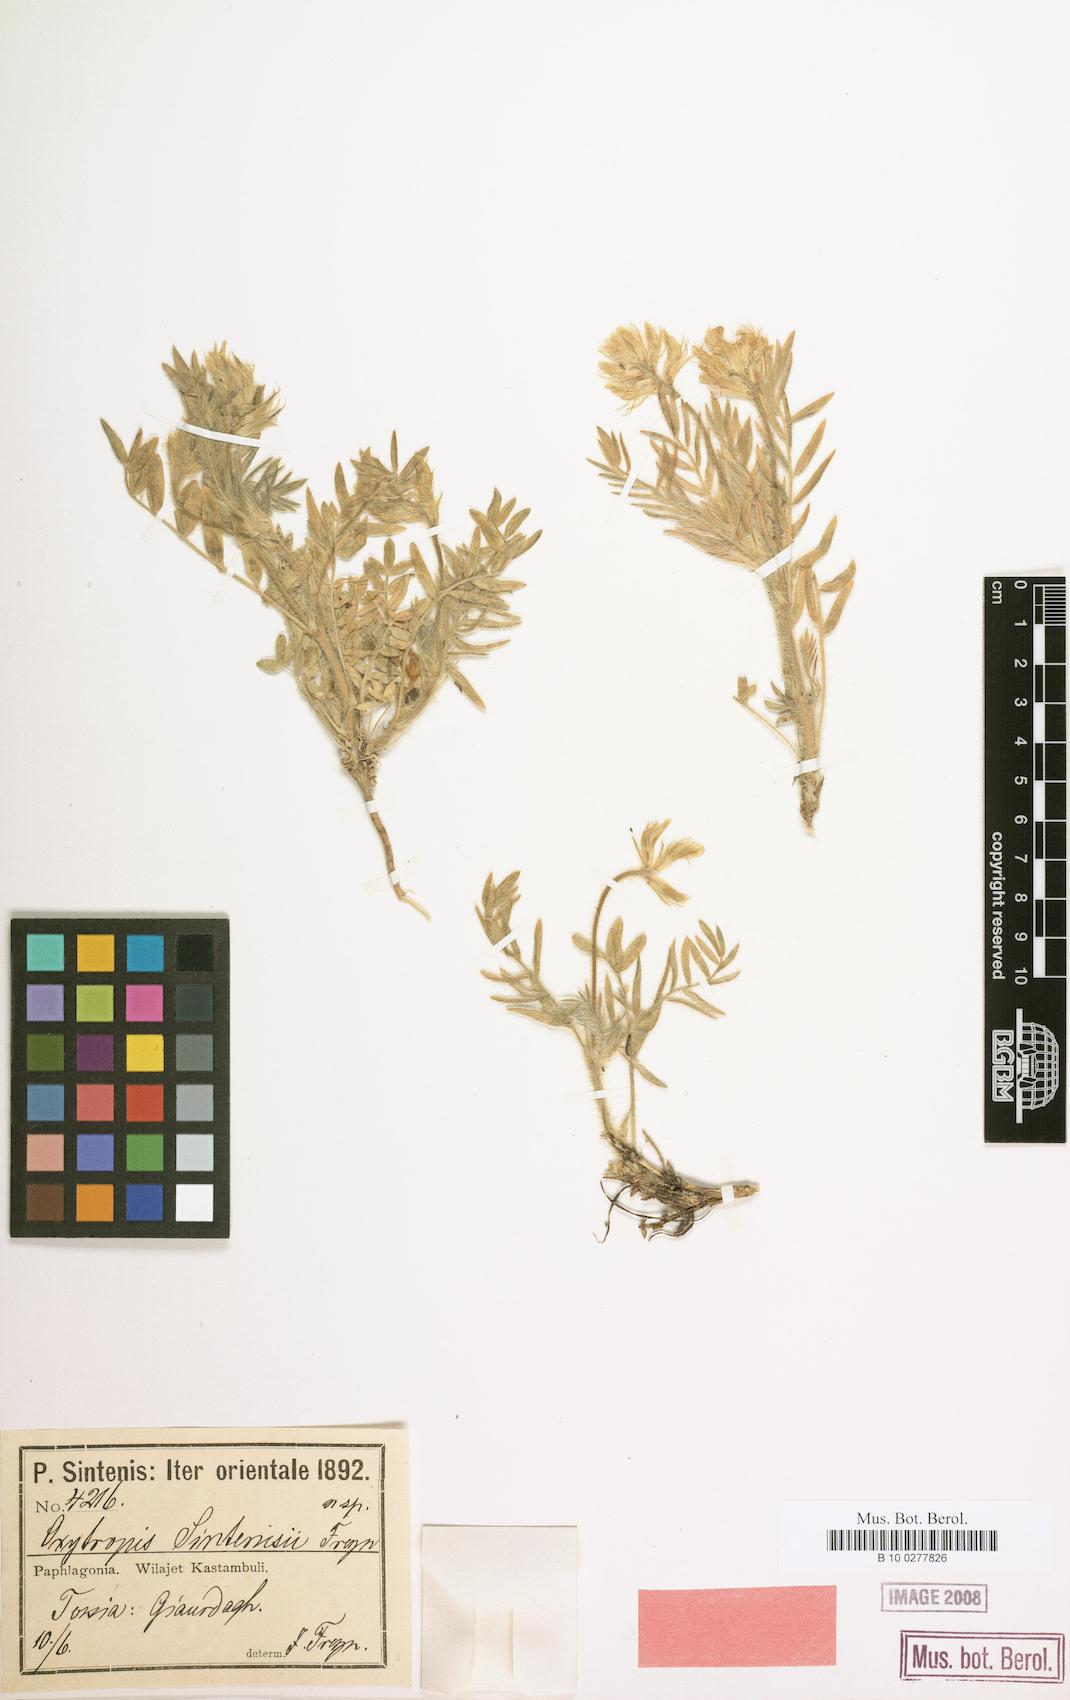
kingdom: Plantae
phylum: Tracheophyta
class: Magnoliopsida
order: Fabales
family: Fabaceae
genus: Oxytropis
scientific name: Oxytropis pallasii
